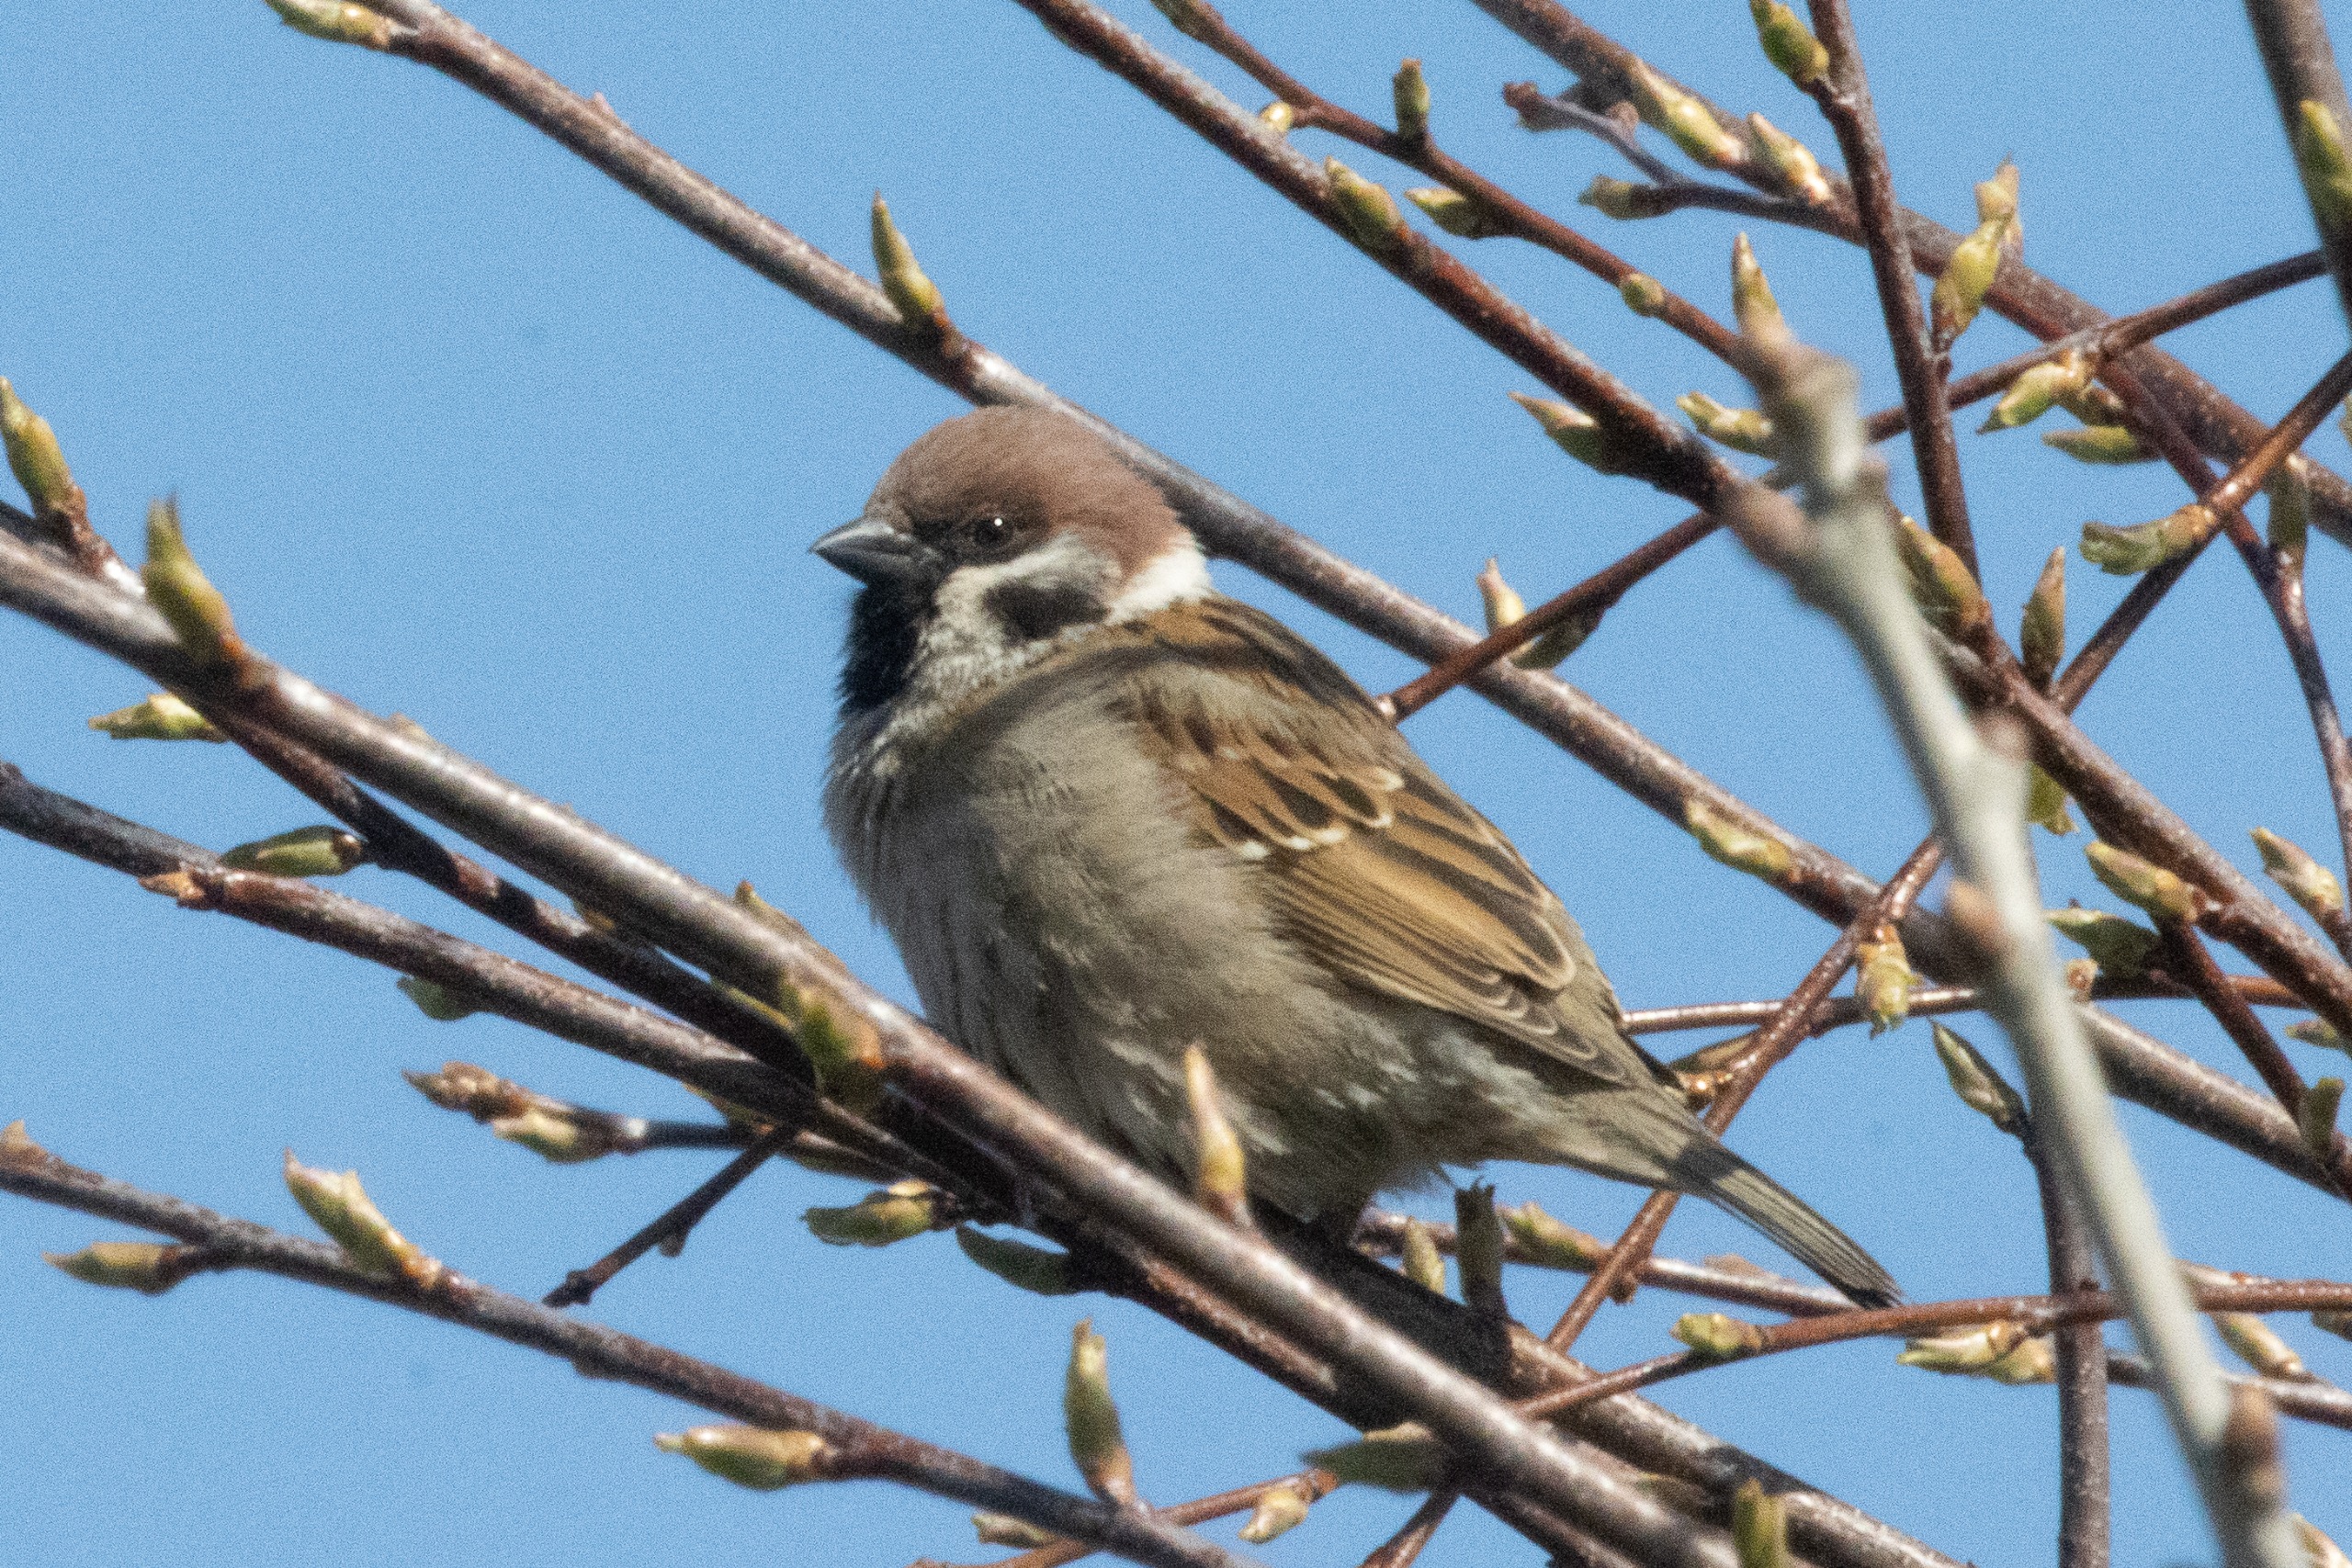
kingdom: Animalia
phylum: Chordata
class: Aves
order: Passeriformes
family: Passeridae
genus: Passer
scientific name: Passer montanus
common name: Skovspurv
